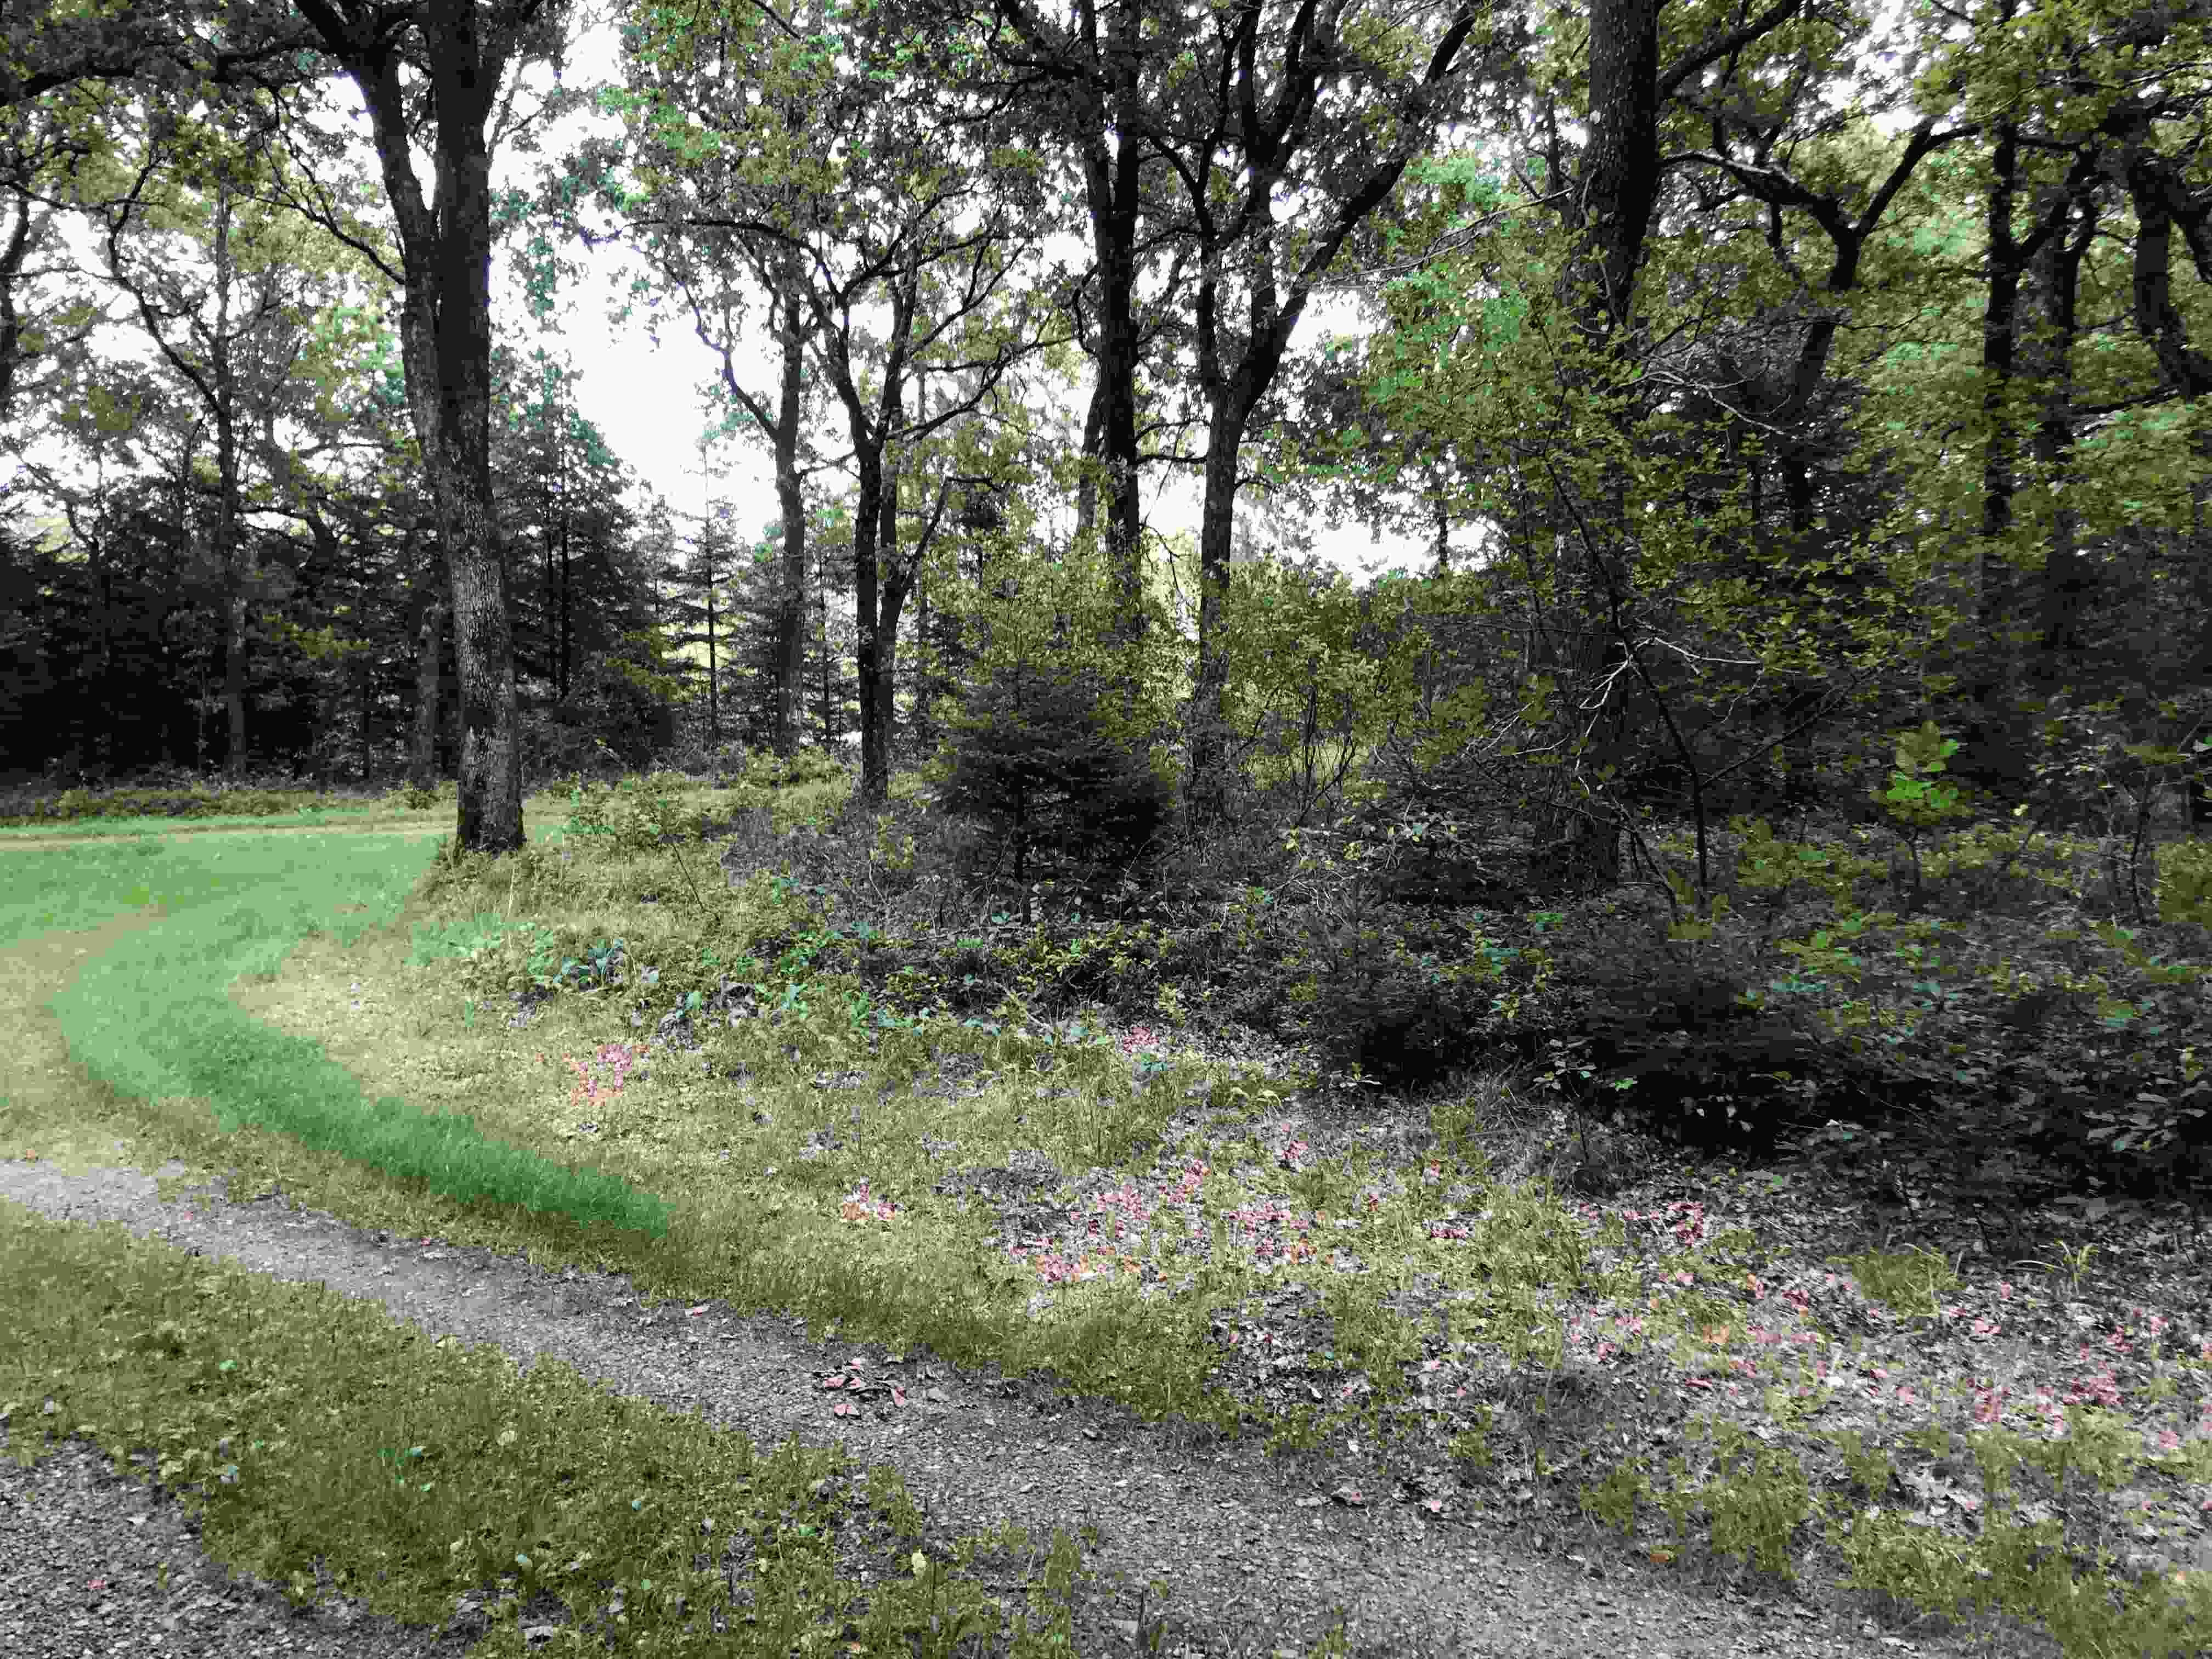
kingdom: Fungi
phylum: Basidiomycota
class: Agaricomycetes
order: Agaricales
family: Entolomataceae
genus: Clitopilus
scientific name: Clitopilus prunulus
